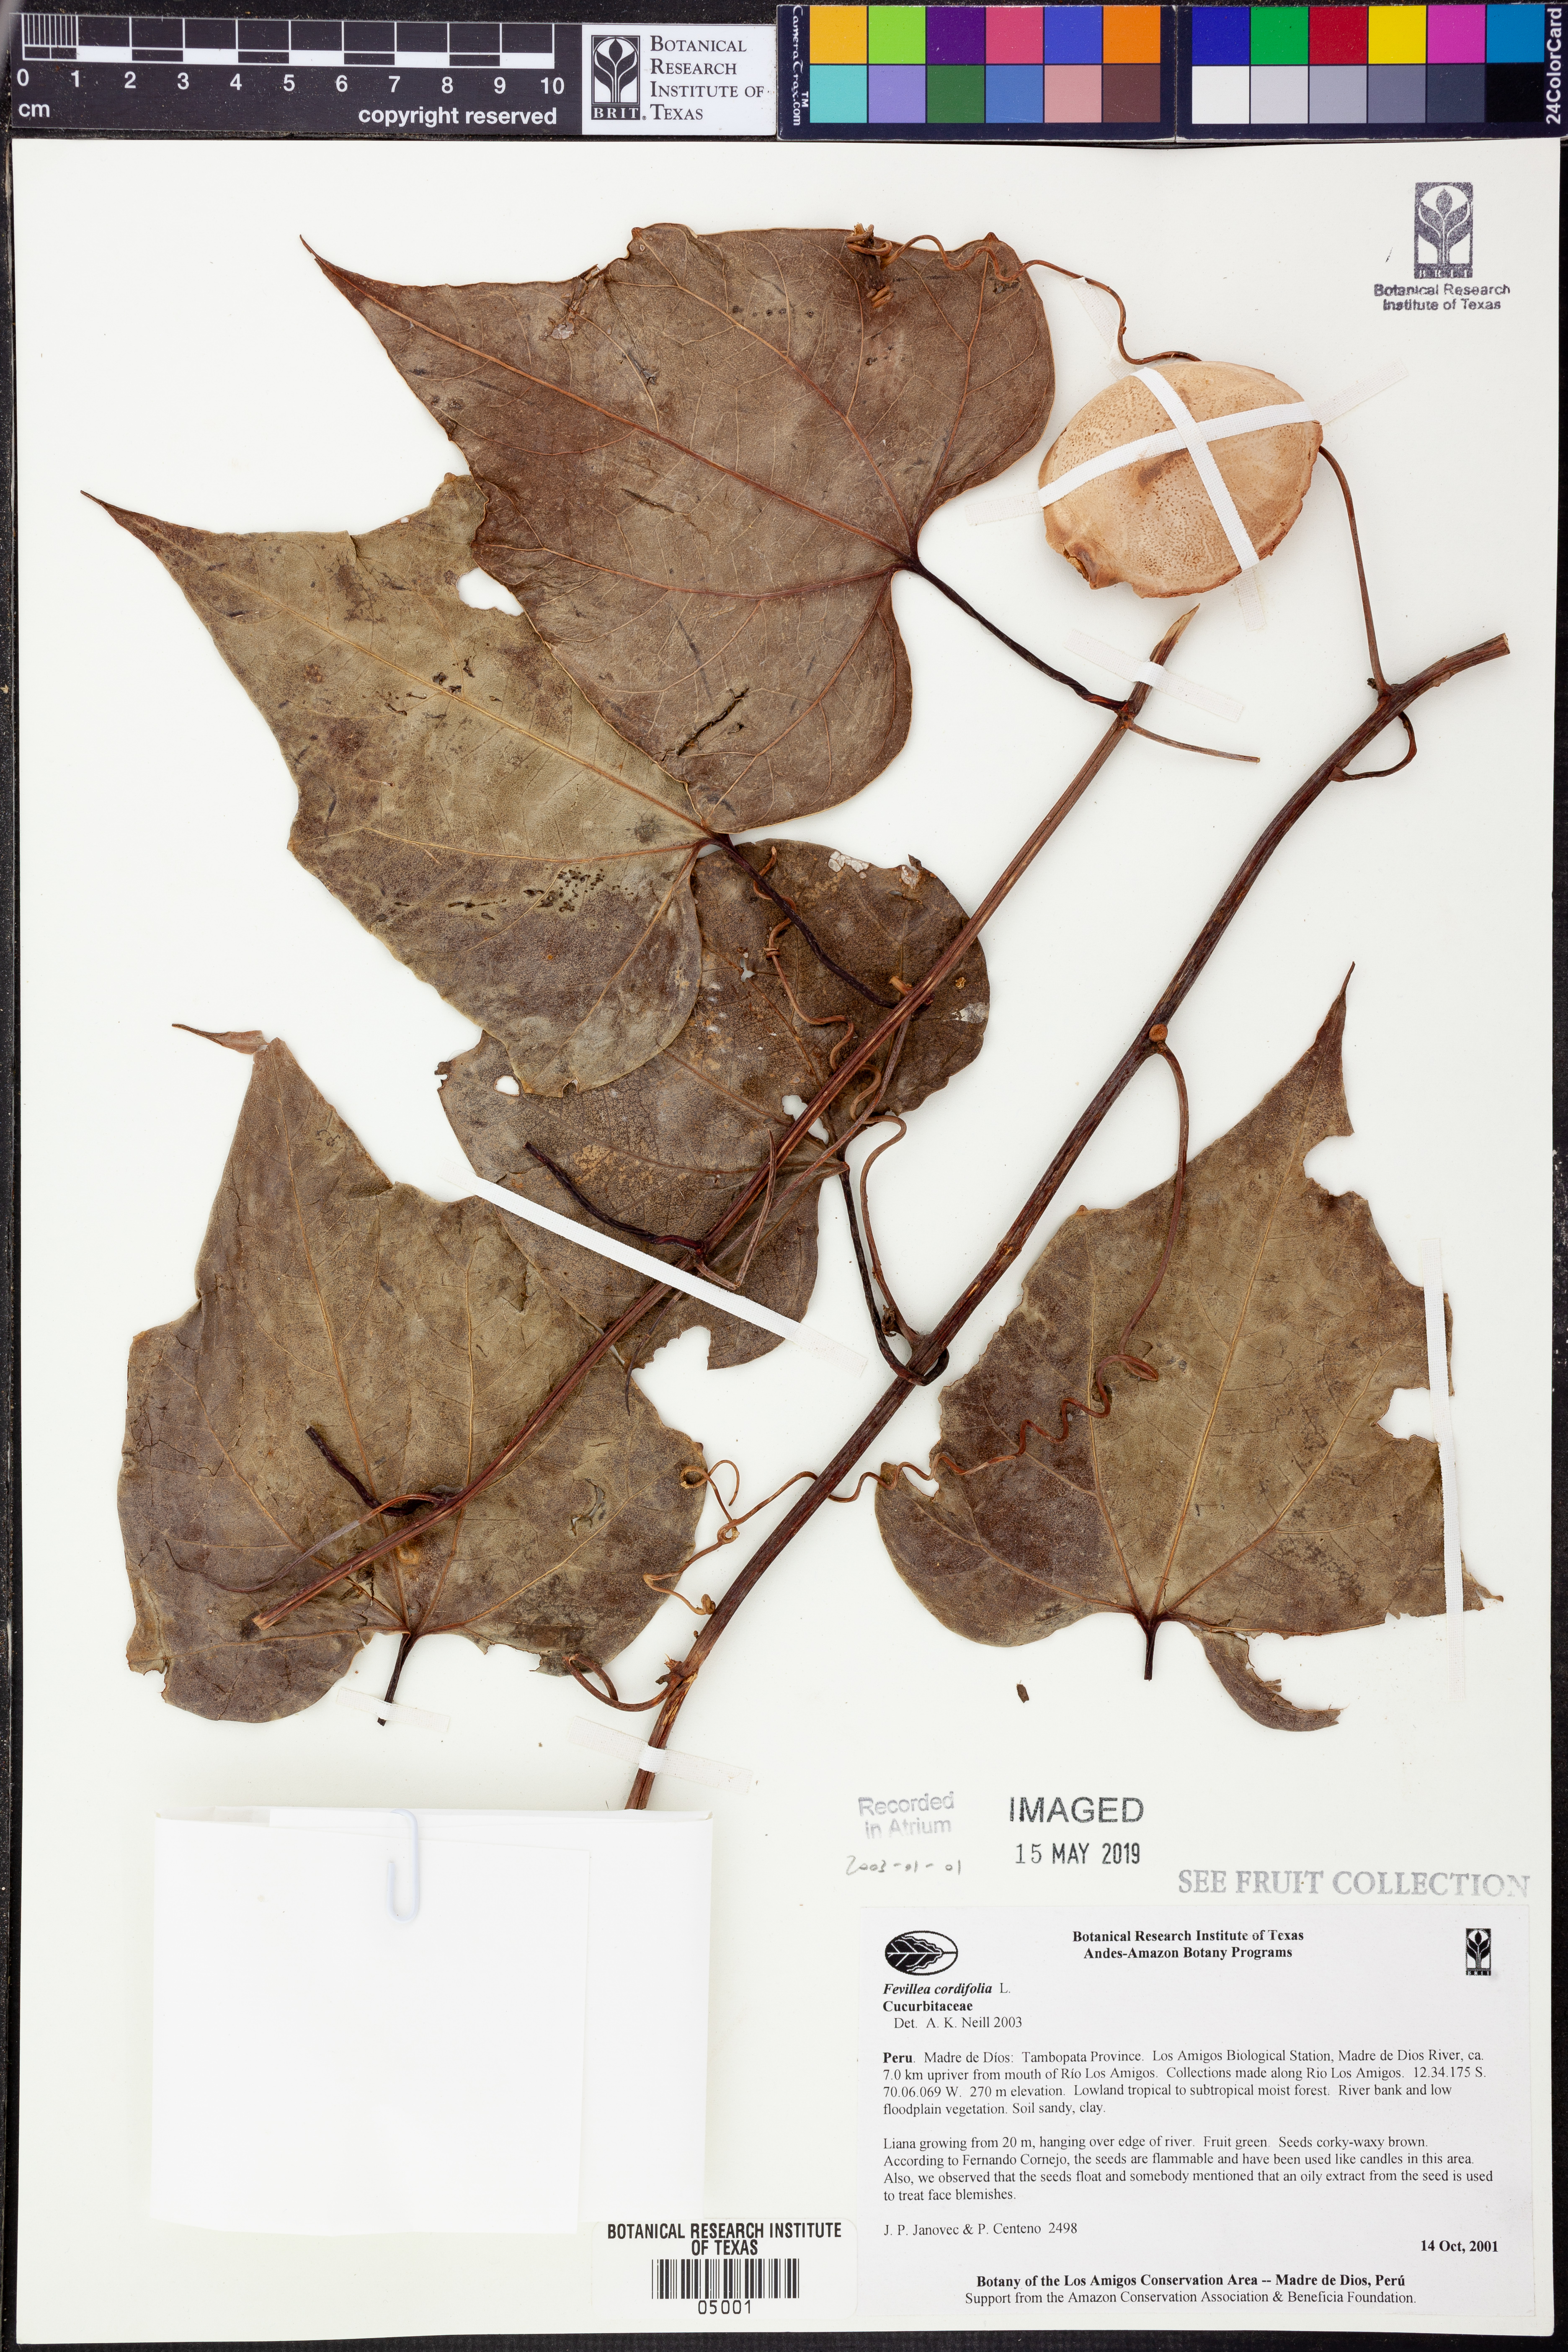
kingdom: Plantae
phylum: Tracheophyta
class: Magnoliopsida
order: Cucurbitales
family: Cucurbitaceae
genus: Fevillea
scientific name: Fevillea
